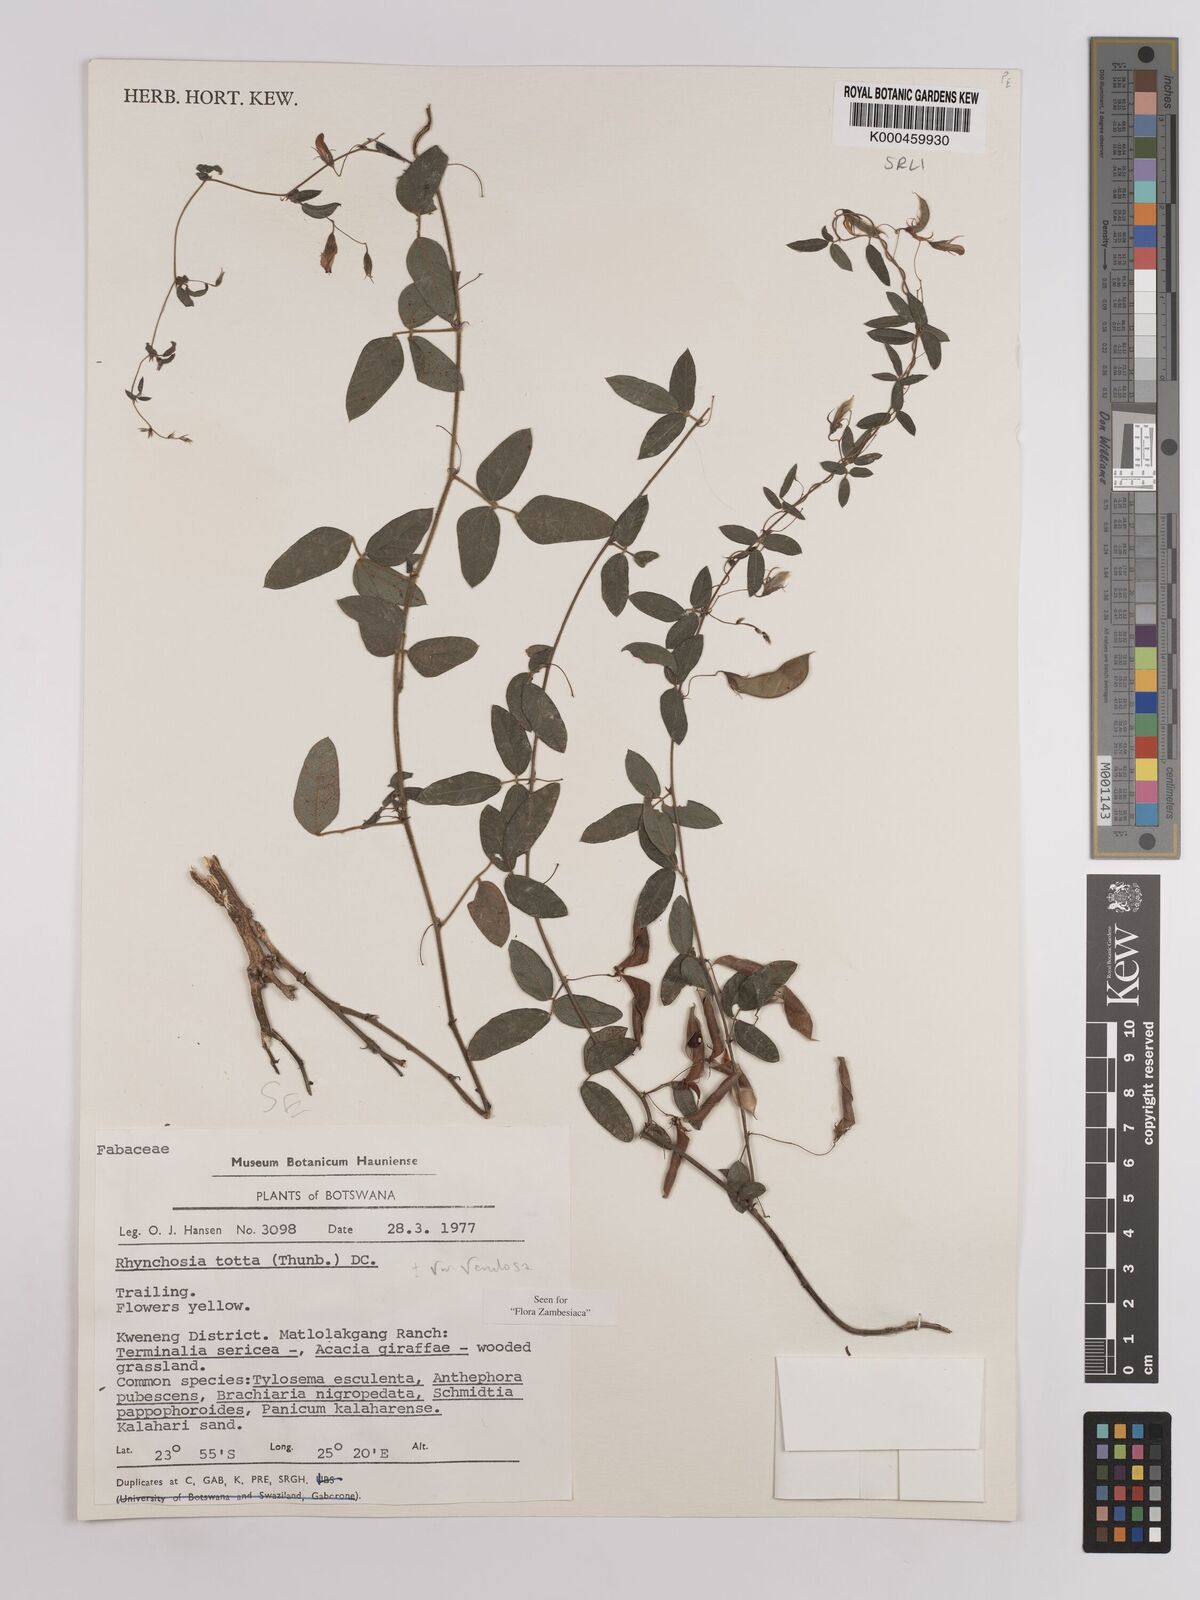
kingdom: Plantae
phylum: Tracheophyta
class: Magnoliopsida
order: Fabales
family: Fabaceae
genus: Rhynchosia
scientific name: Rhynchosia totta
